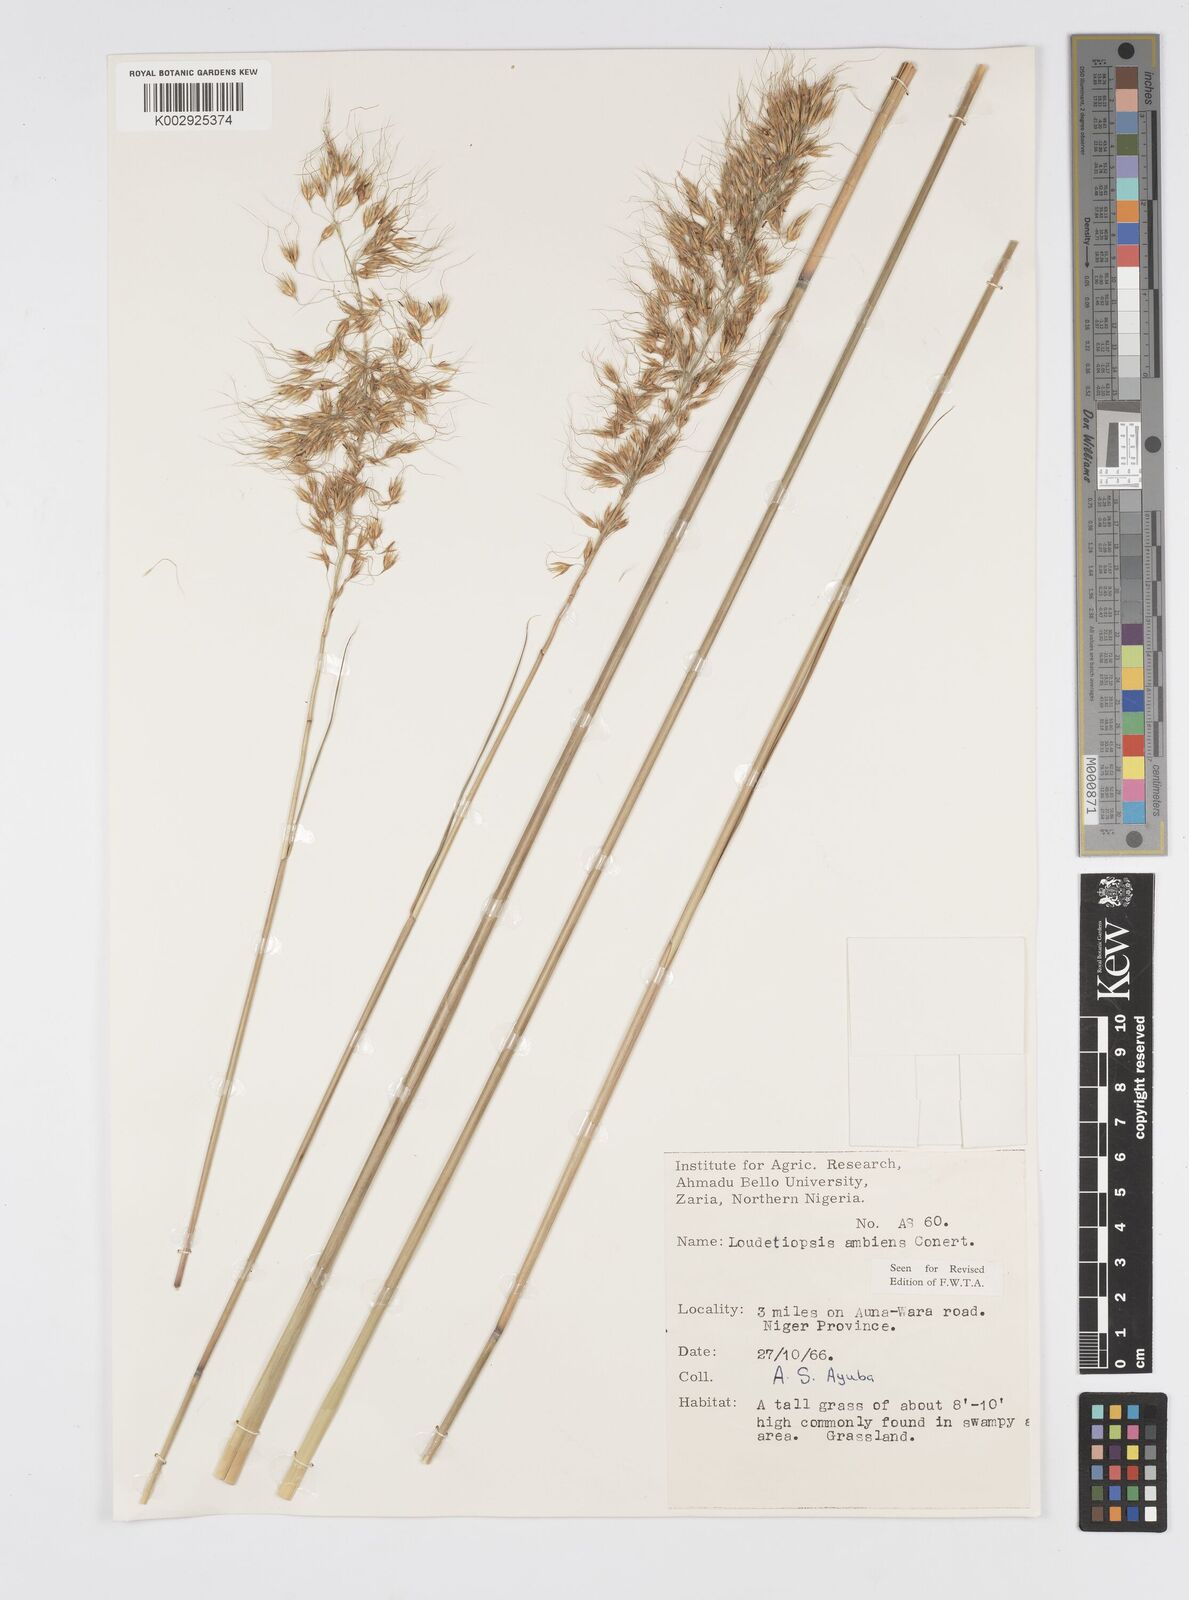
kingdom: Plantae
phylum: Tracheophyta
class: Liliopsida
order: Poales
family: Poaceae
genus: Loudetiopsis
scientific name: Loudetiopsis ambiens
